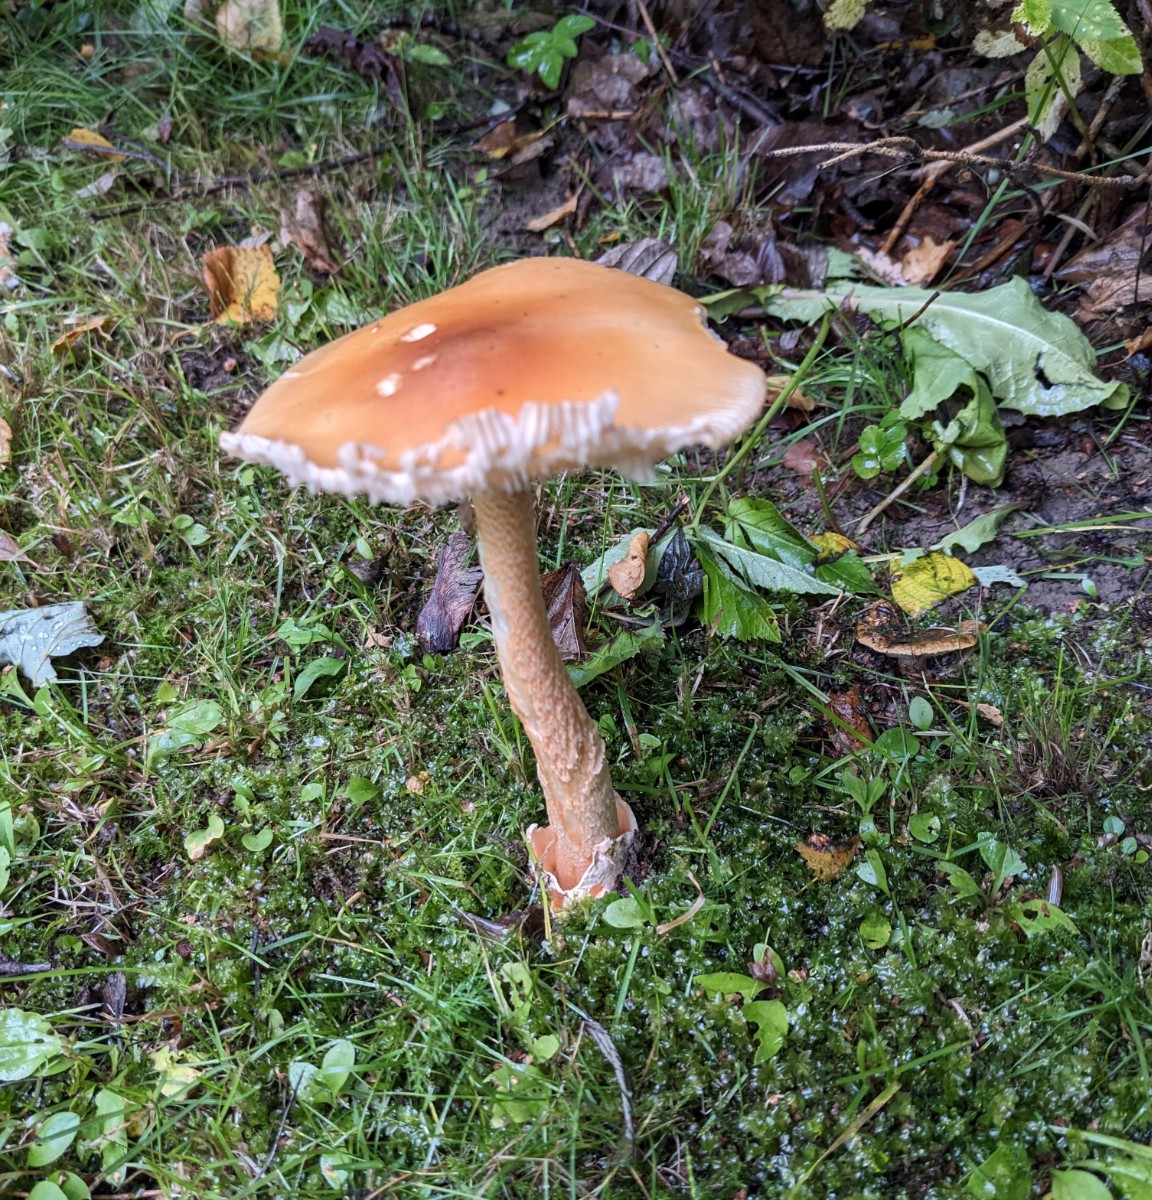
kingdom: Fungi
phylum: Basidiomycota
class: Agaricomycetes
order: Agaricales
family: Amanitaceae
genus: Amanita
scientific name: Amanita crocea
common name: gylden kam-fluesvamp
